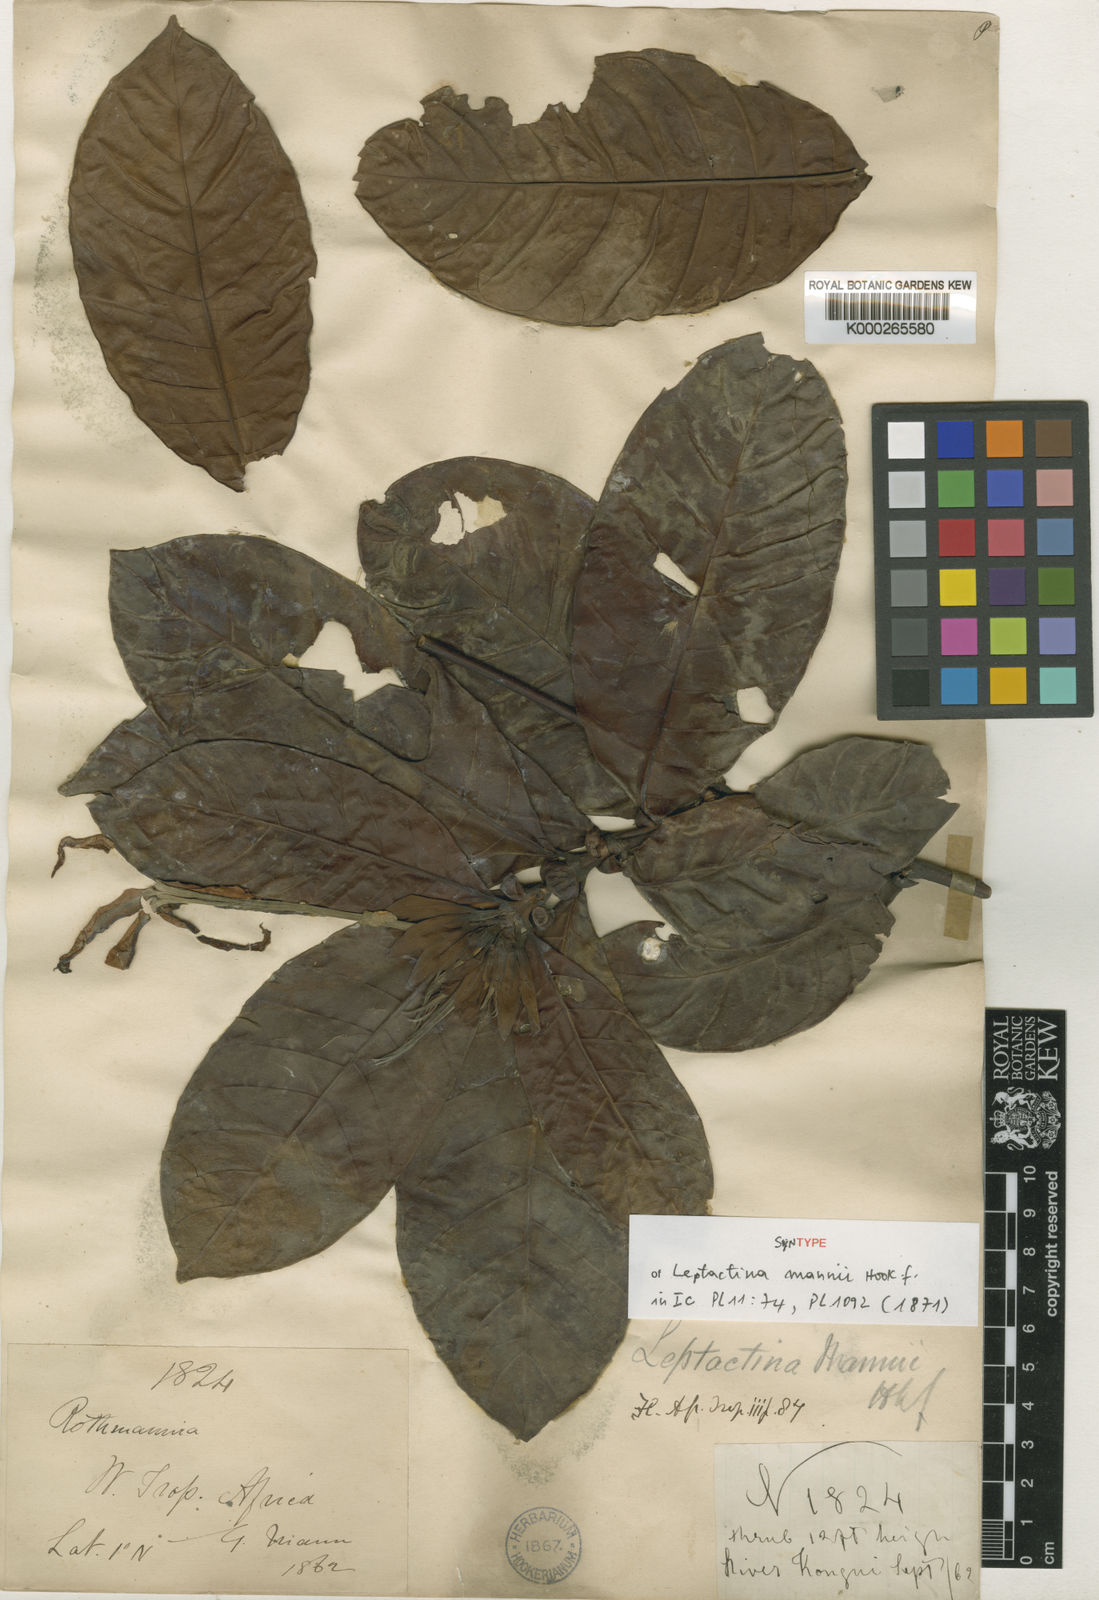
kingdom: Plantae
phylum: Tracheophyta
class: Magnoliopsida
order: Gentianales
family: Rubiaceae
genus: Leptactina
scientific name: Leptactina mannii
